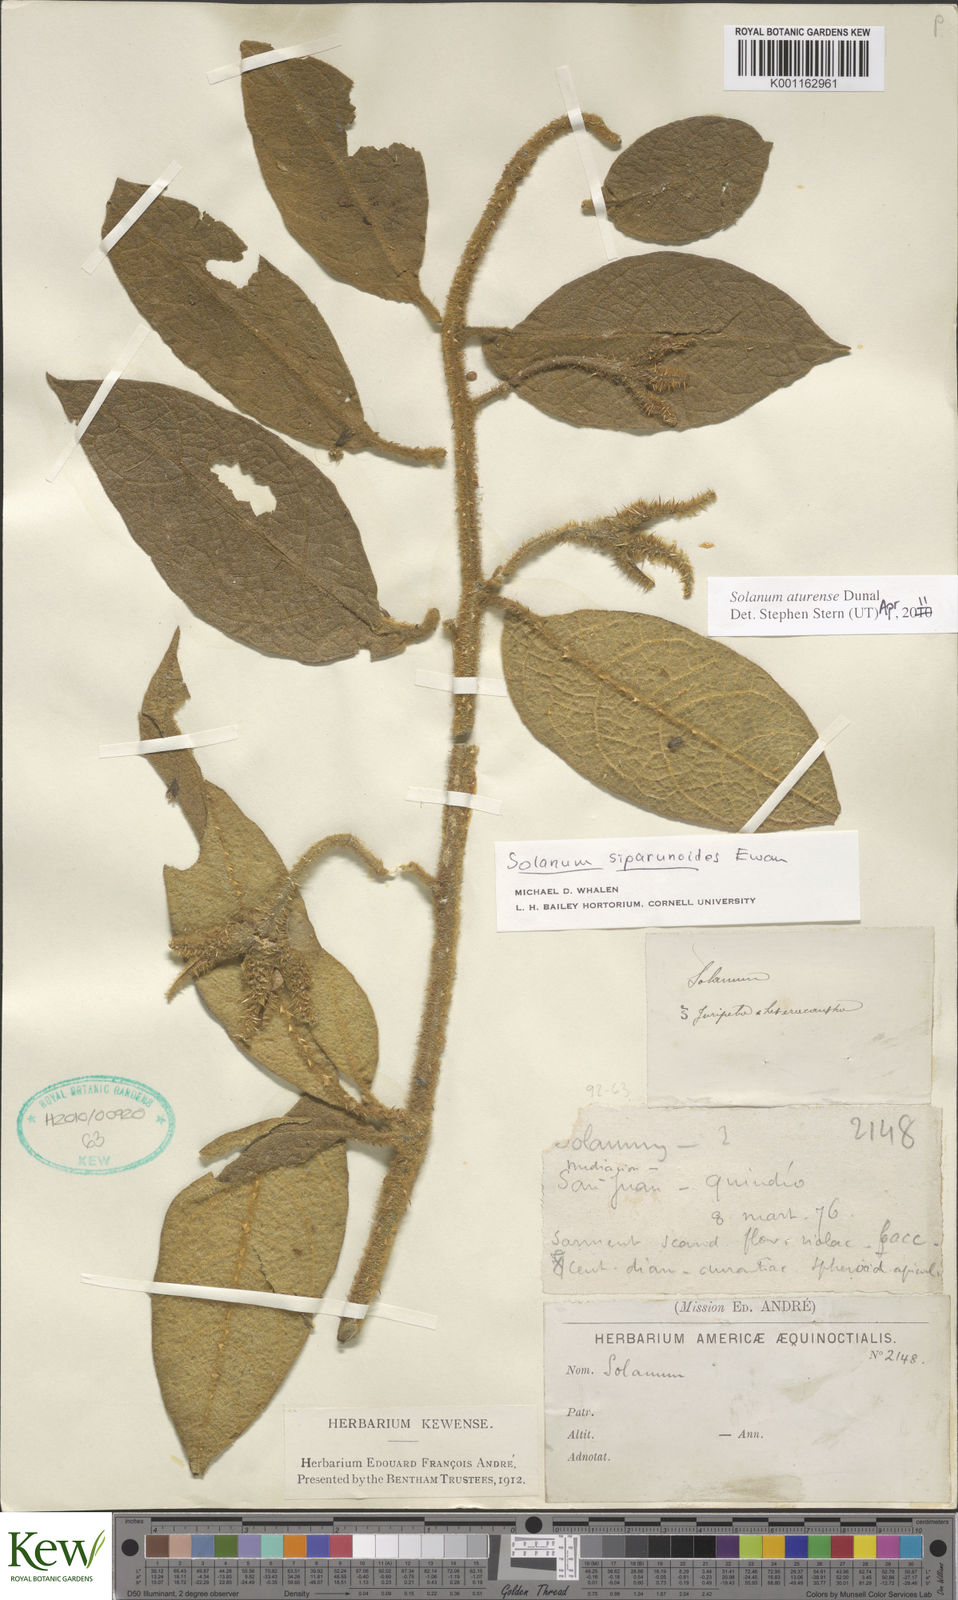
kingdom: Plantae
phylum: Tracheophyta
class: Magnoliopsida
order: Solanales
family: Solanaceae
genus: Solanum
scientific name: Solanum aturense
